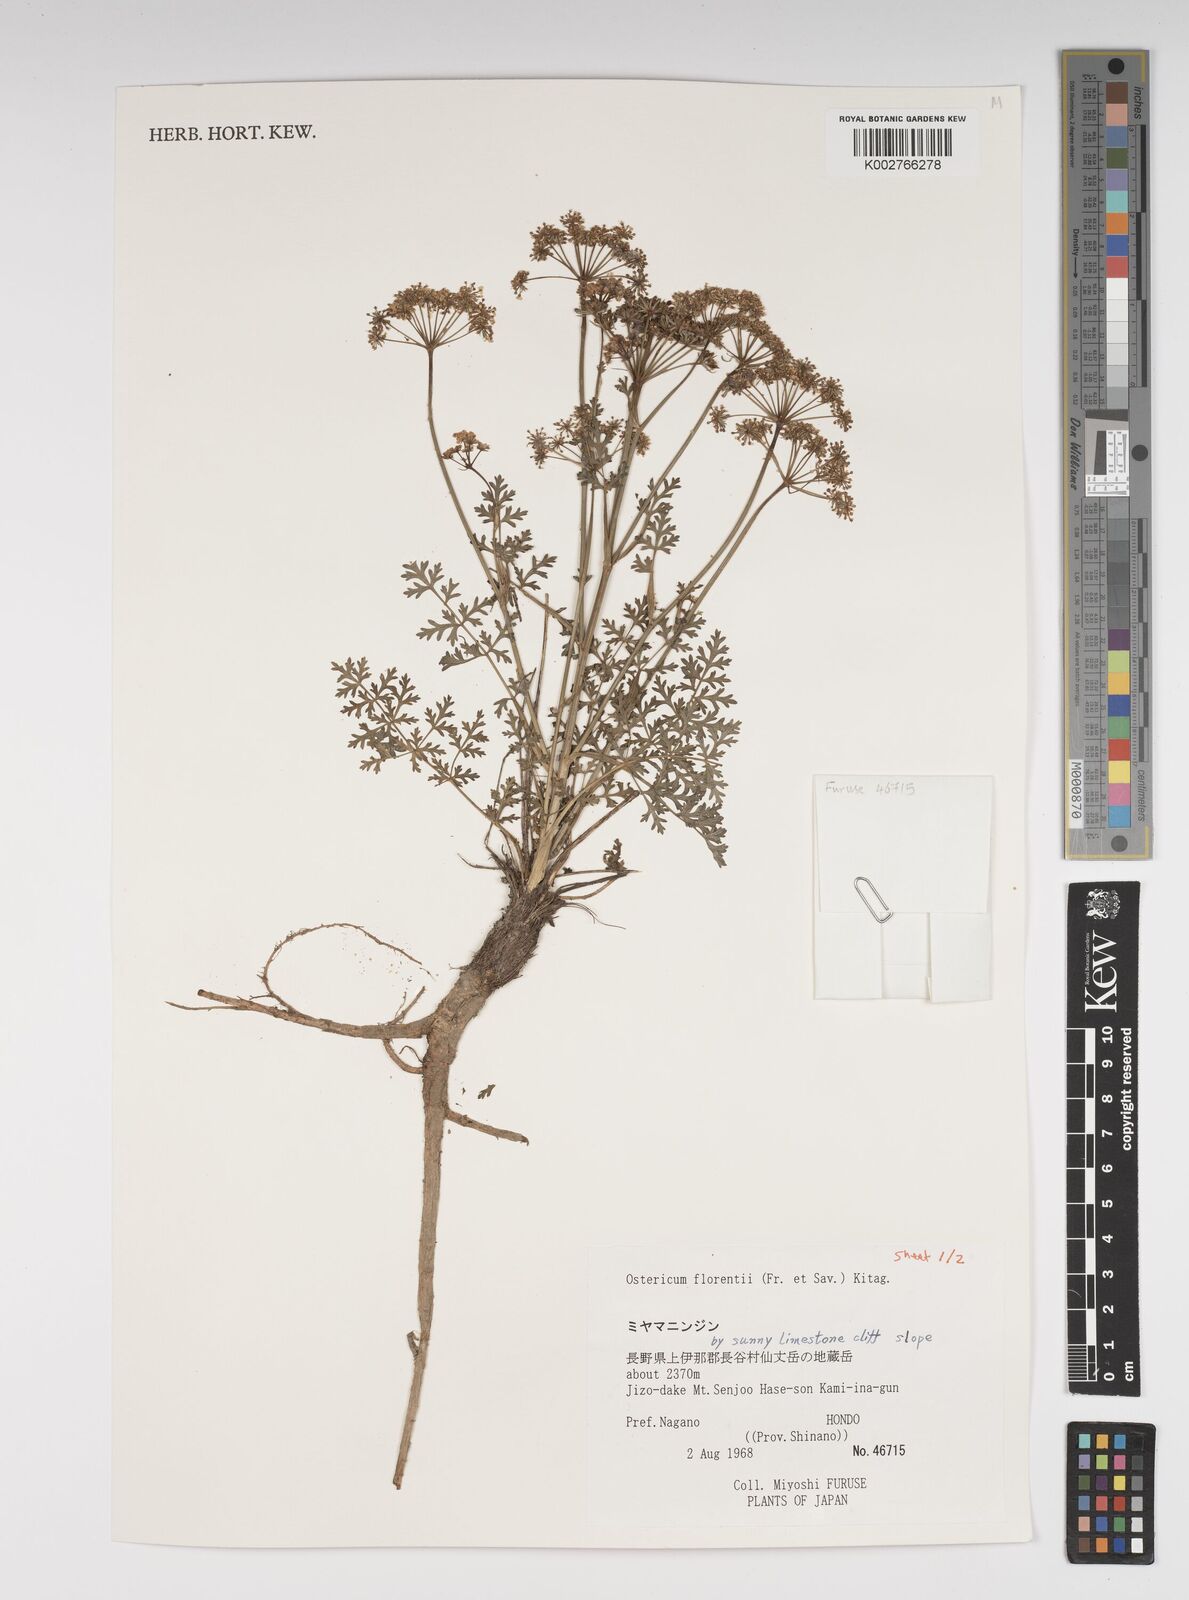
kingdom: Plantae
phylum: Tracheophyta
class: Magnoliopsida
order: Apiales
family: Apiaceae
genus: Ostericum
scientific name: Ostericum florenti
